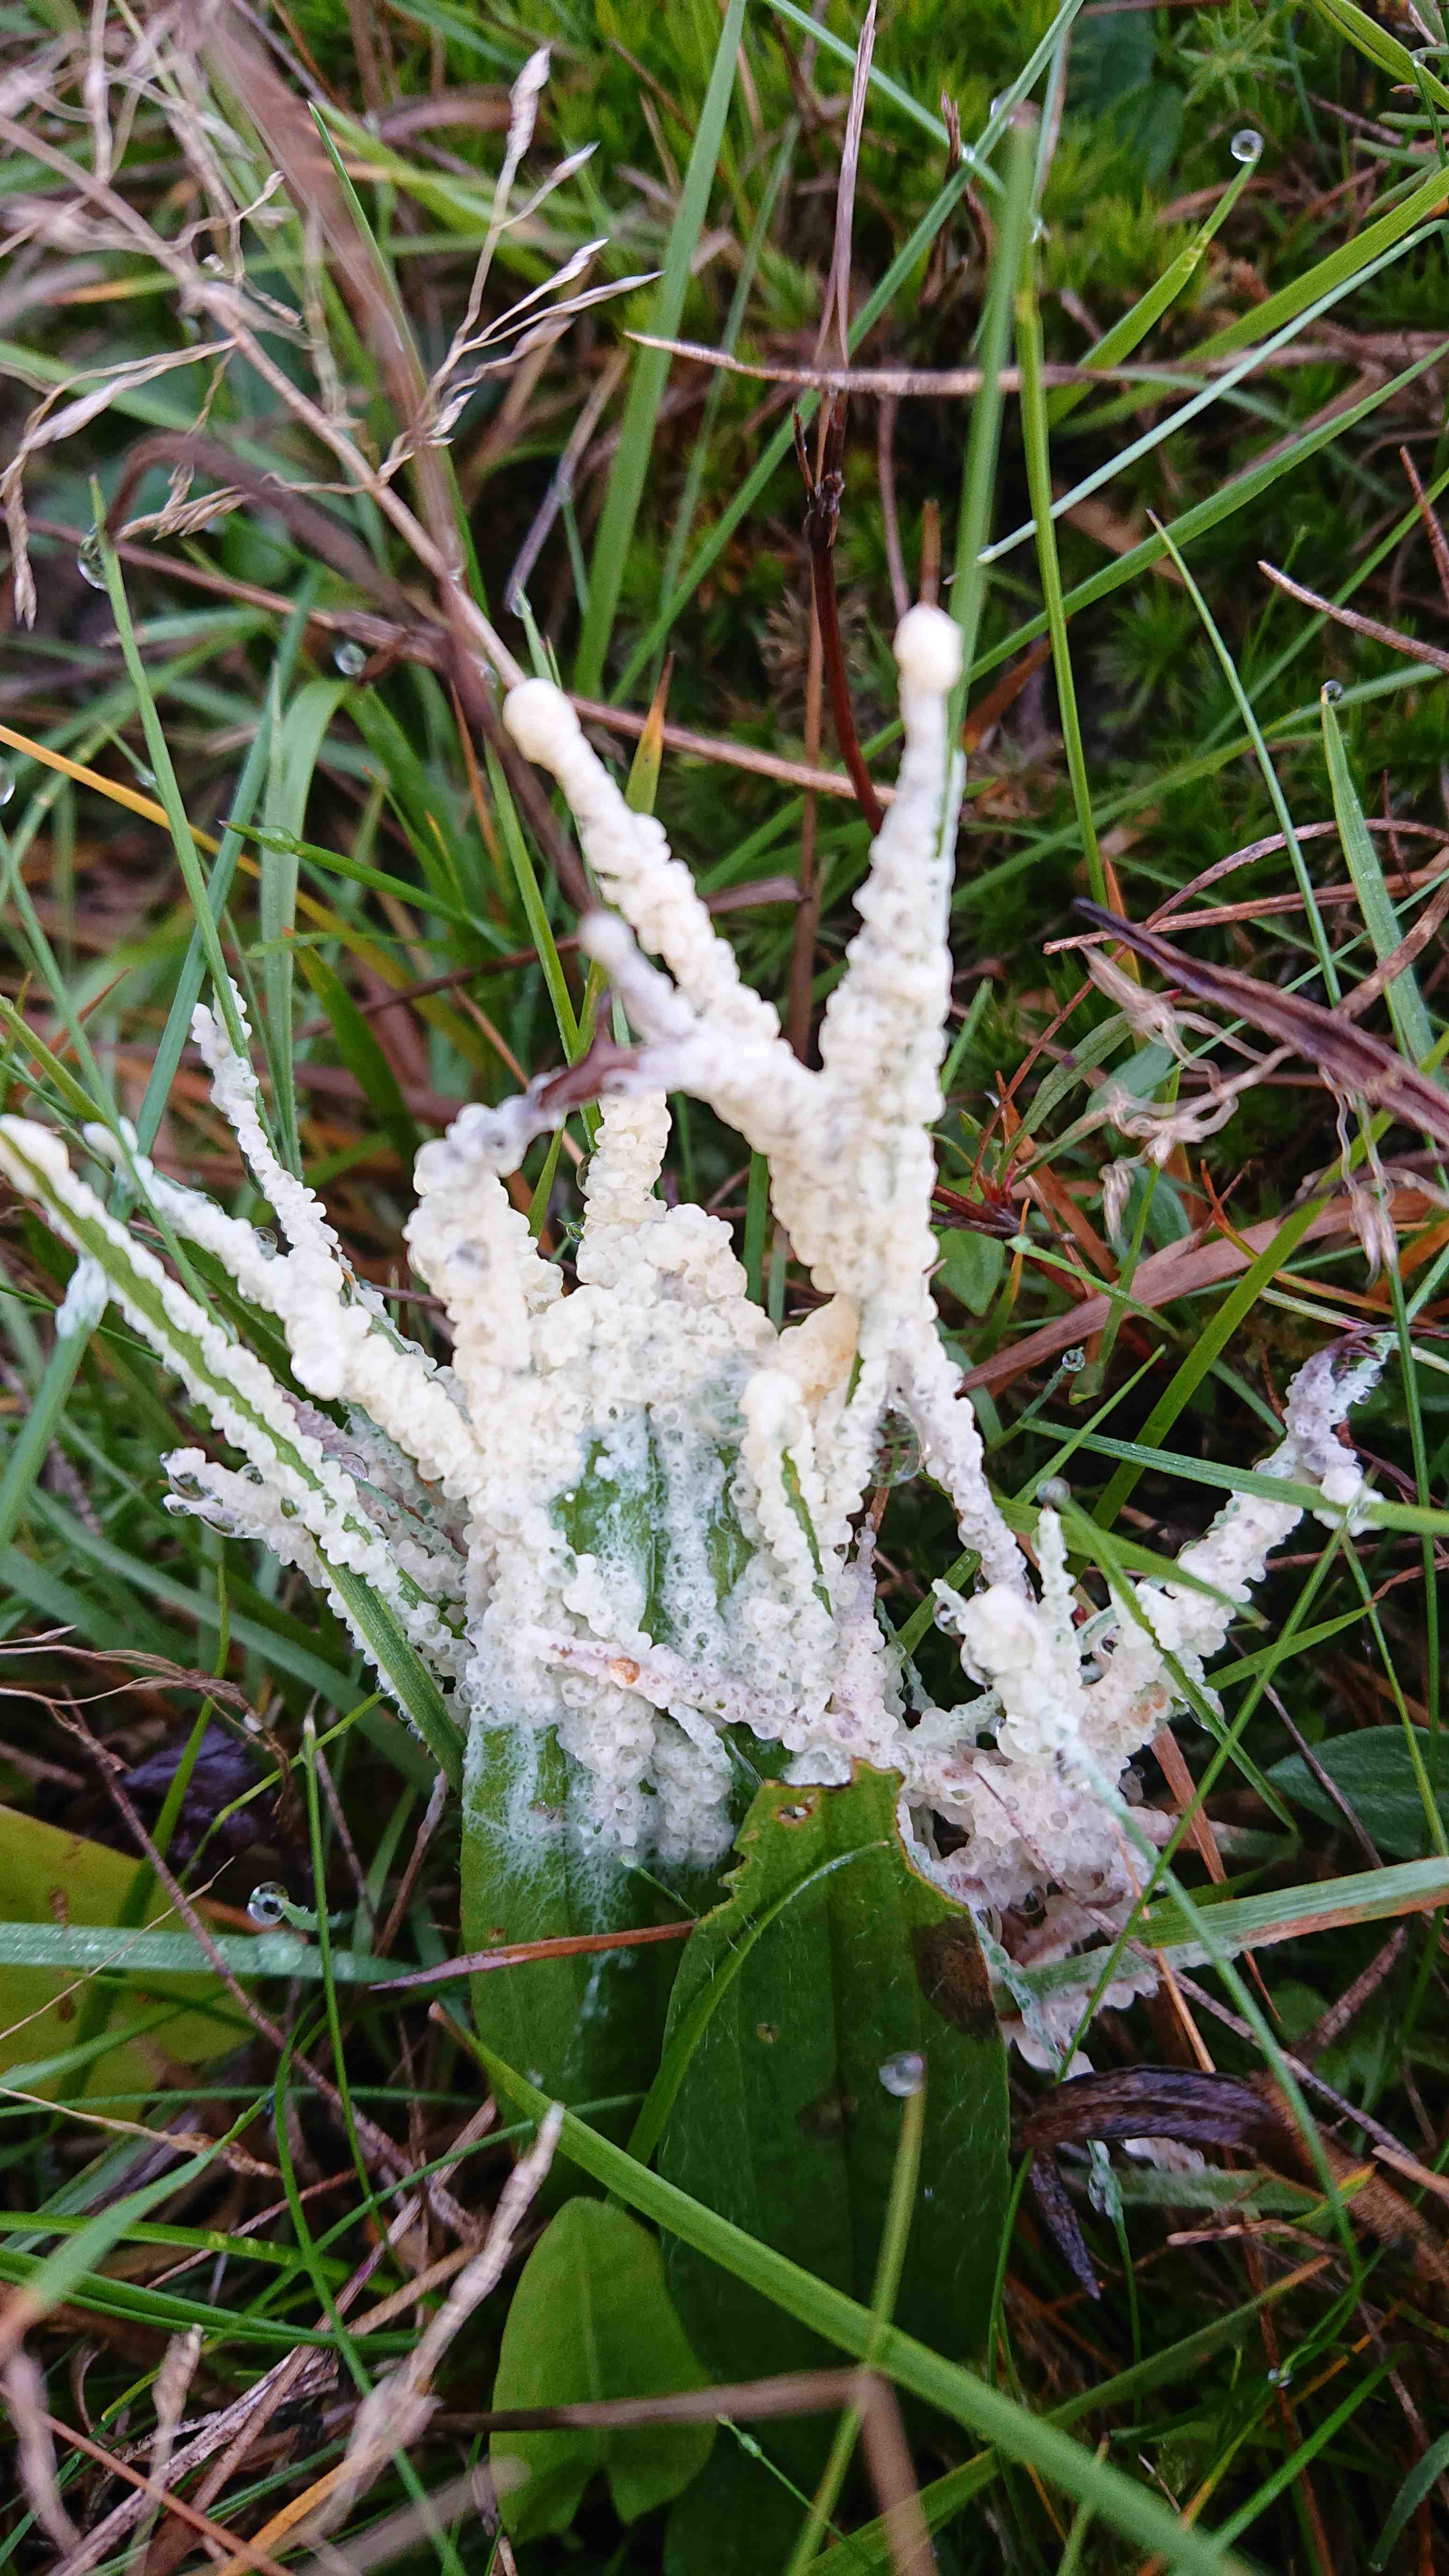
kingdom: Protozoa
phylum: Mycetozoa
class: Myxomycetes
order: Physarales
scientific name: Physarales
